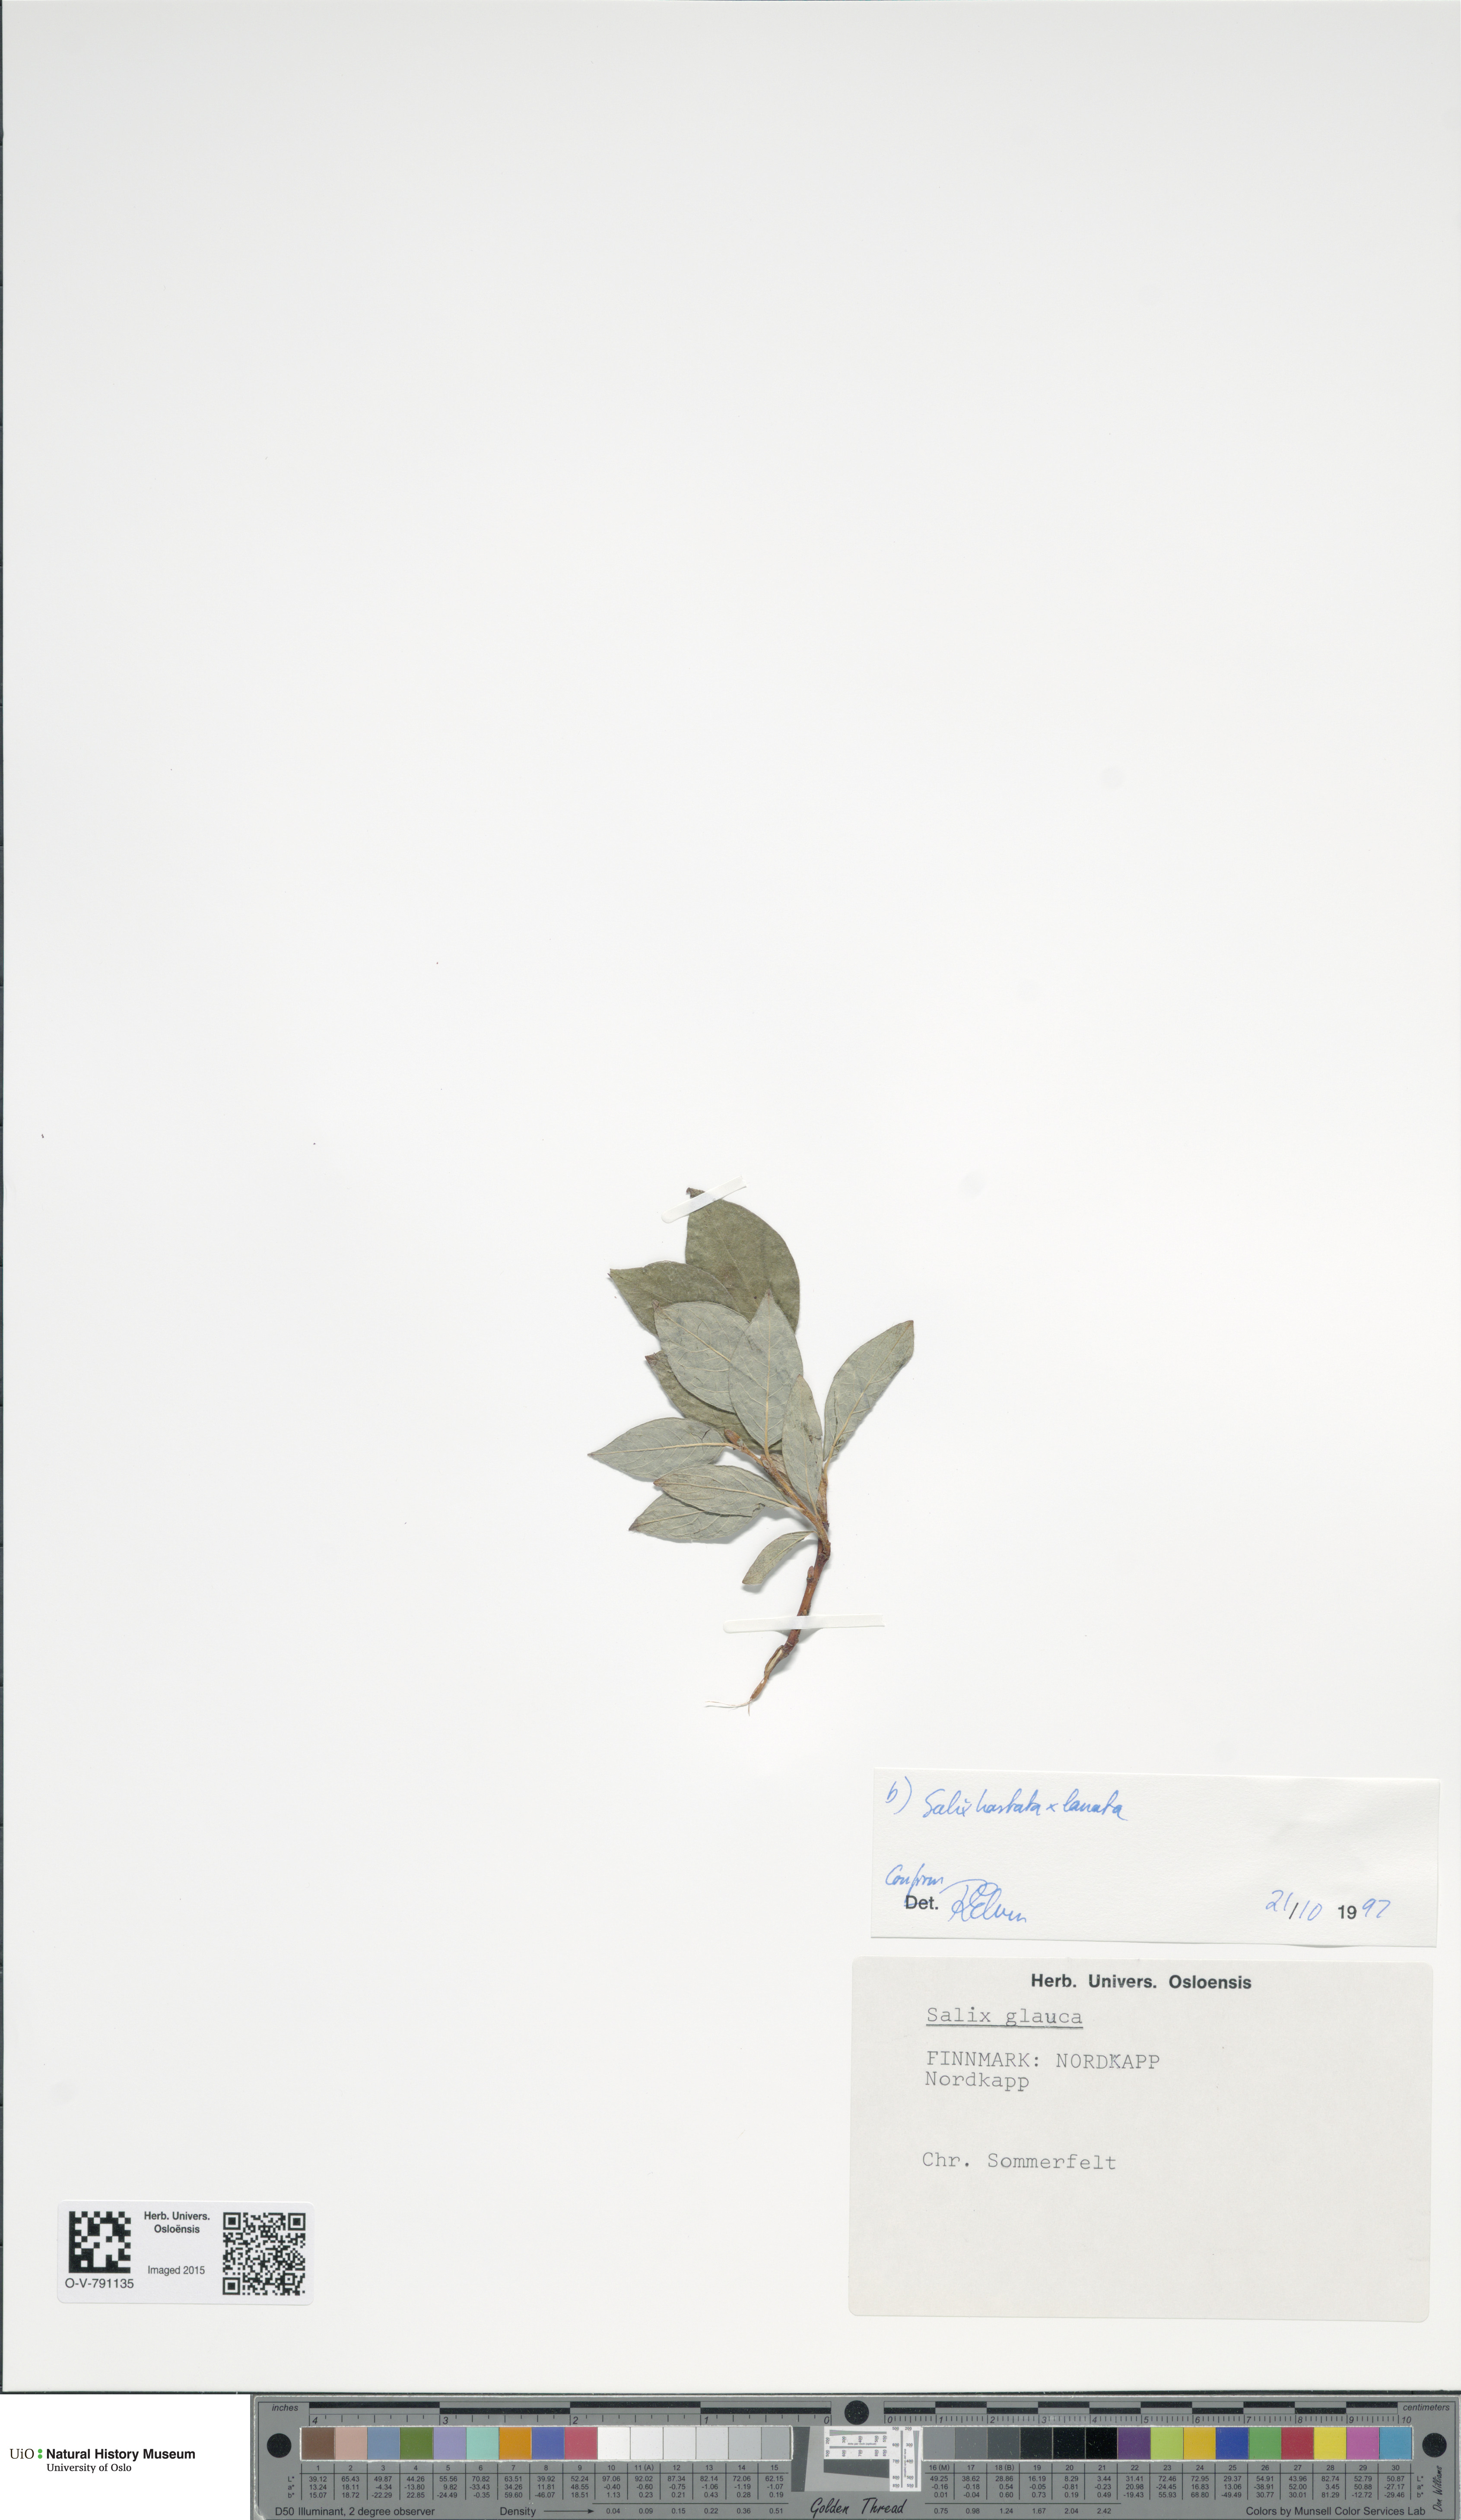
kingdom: Plantae
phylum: Tracheophyta
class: Magnoliopsida
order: Malpighiales
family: Salicaceae
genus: Salix
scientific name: Salix
